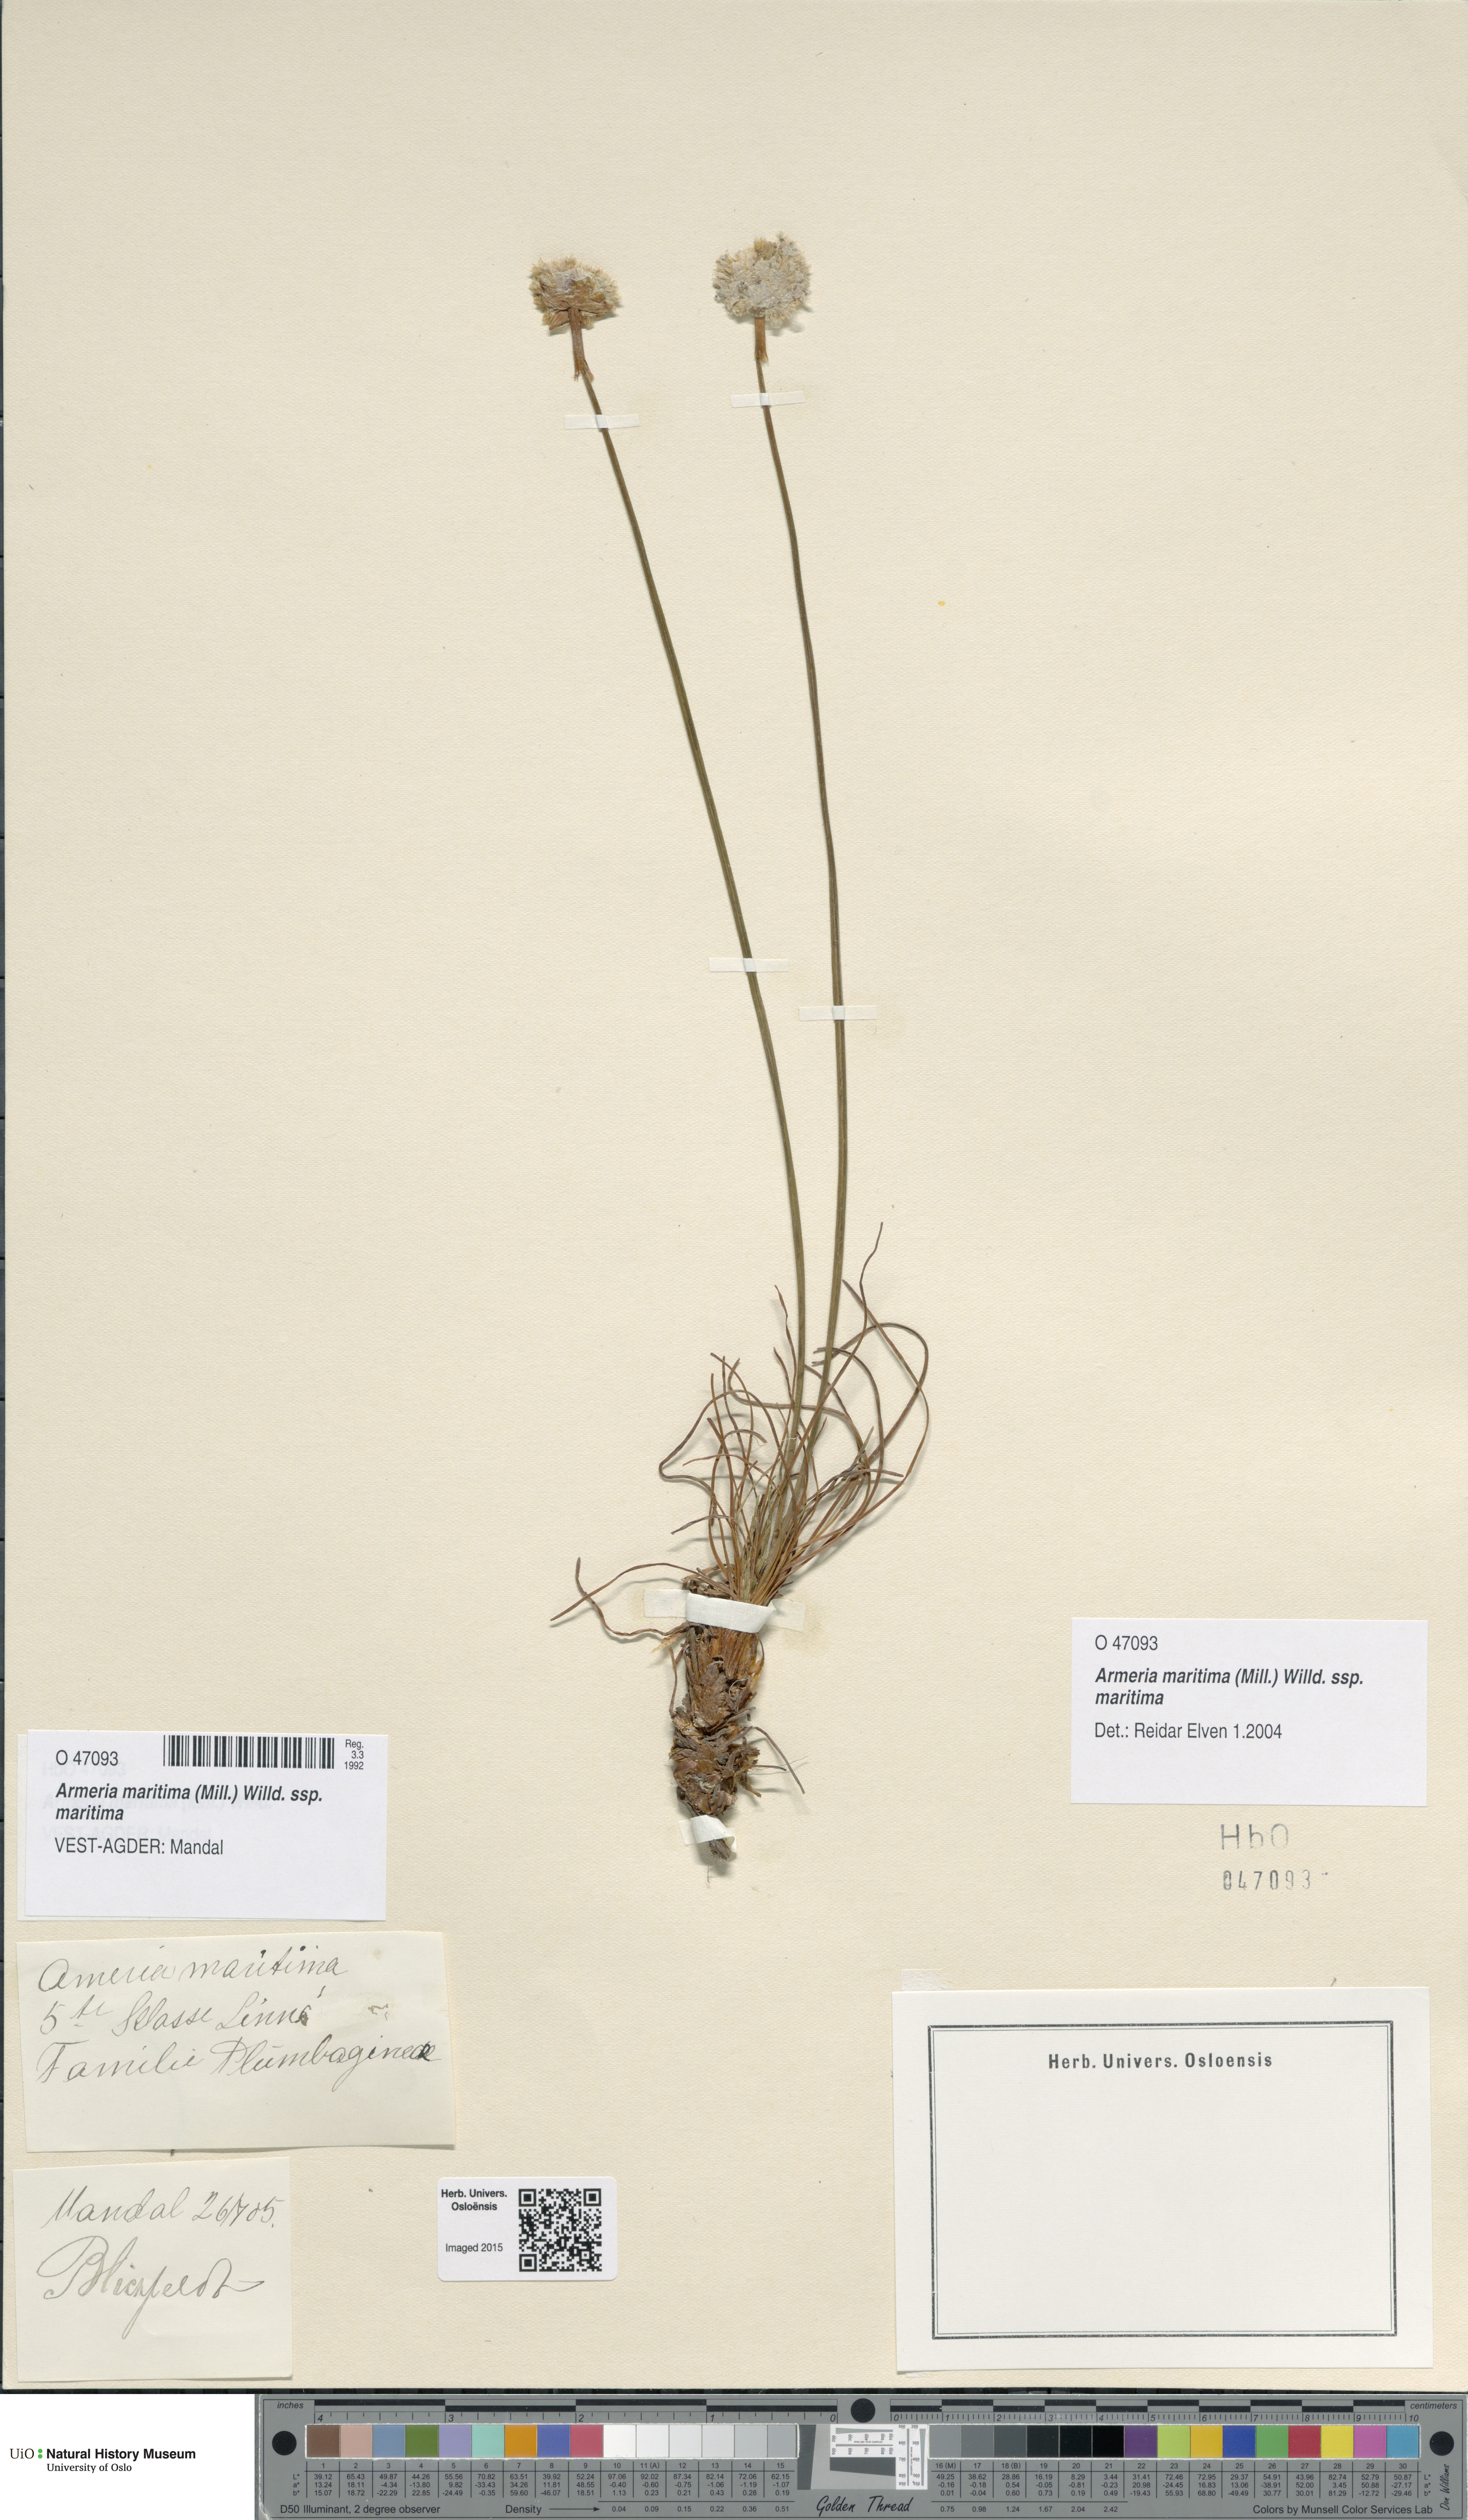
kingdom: Plantae
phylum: Tracheophyta
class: Magnoliopsida
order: Caryophyllales
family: Plumbaginaceae
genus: Armeria
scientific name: Armeria maritima
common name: Thrift
